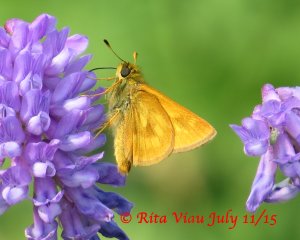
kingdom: Animalia
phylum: Arthropoda
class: Insecta
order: Lepidoptera
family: Hesperiidae
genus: Polites
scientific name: Polites
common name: Long Dash Skipper
